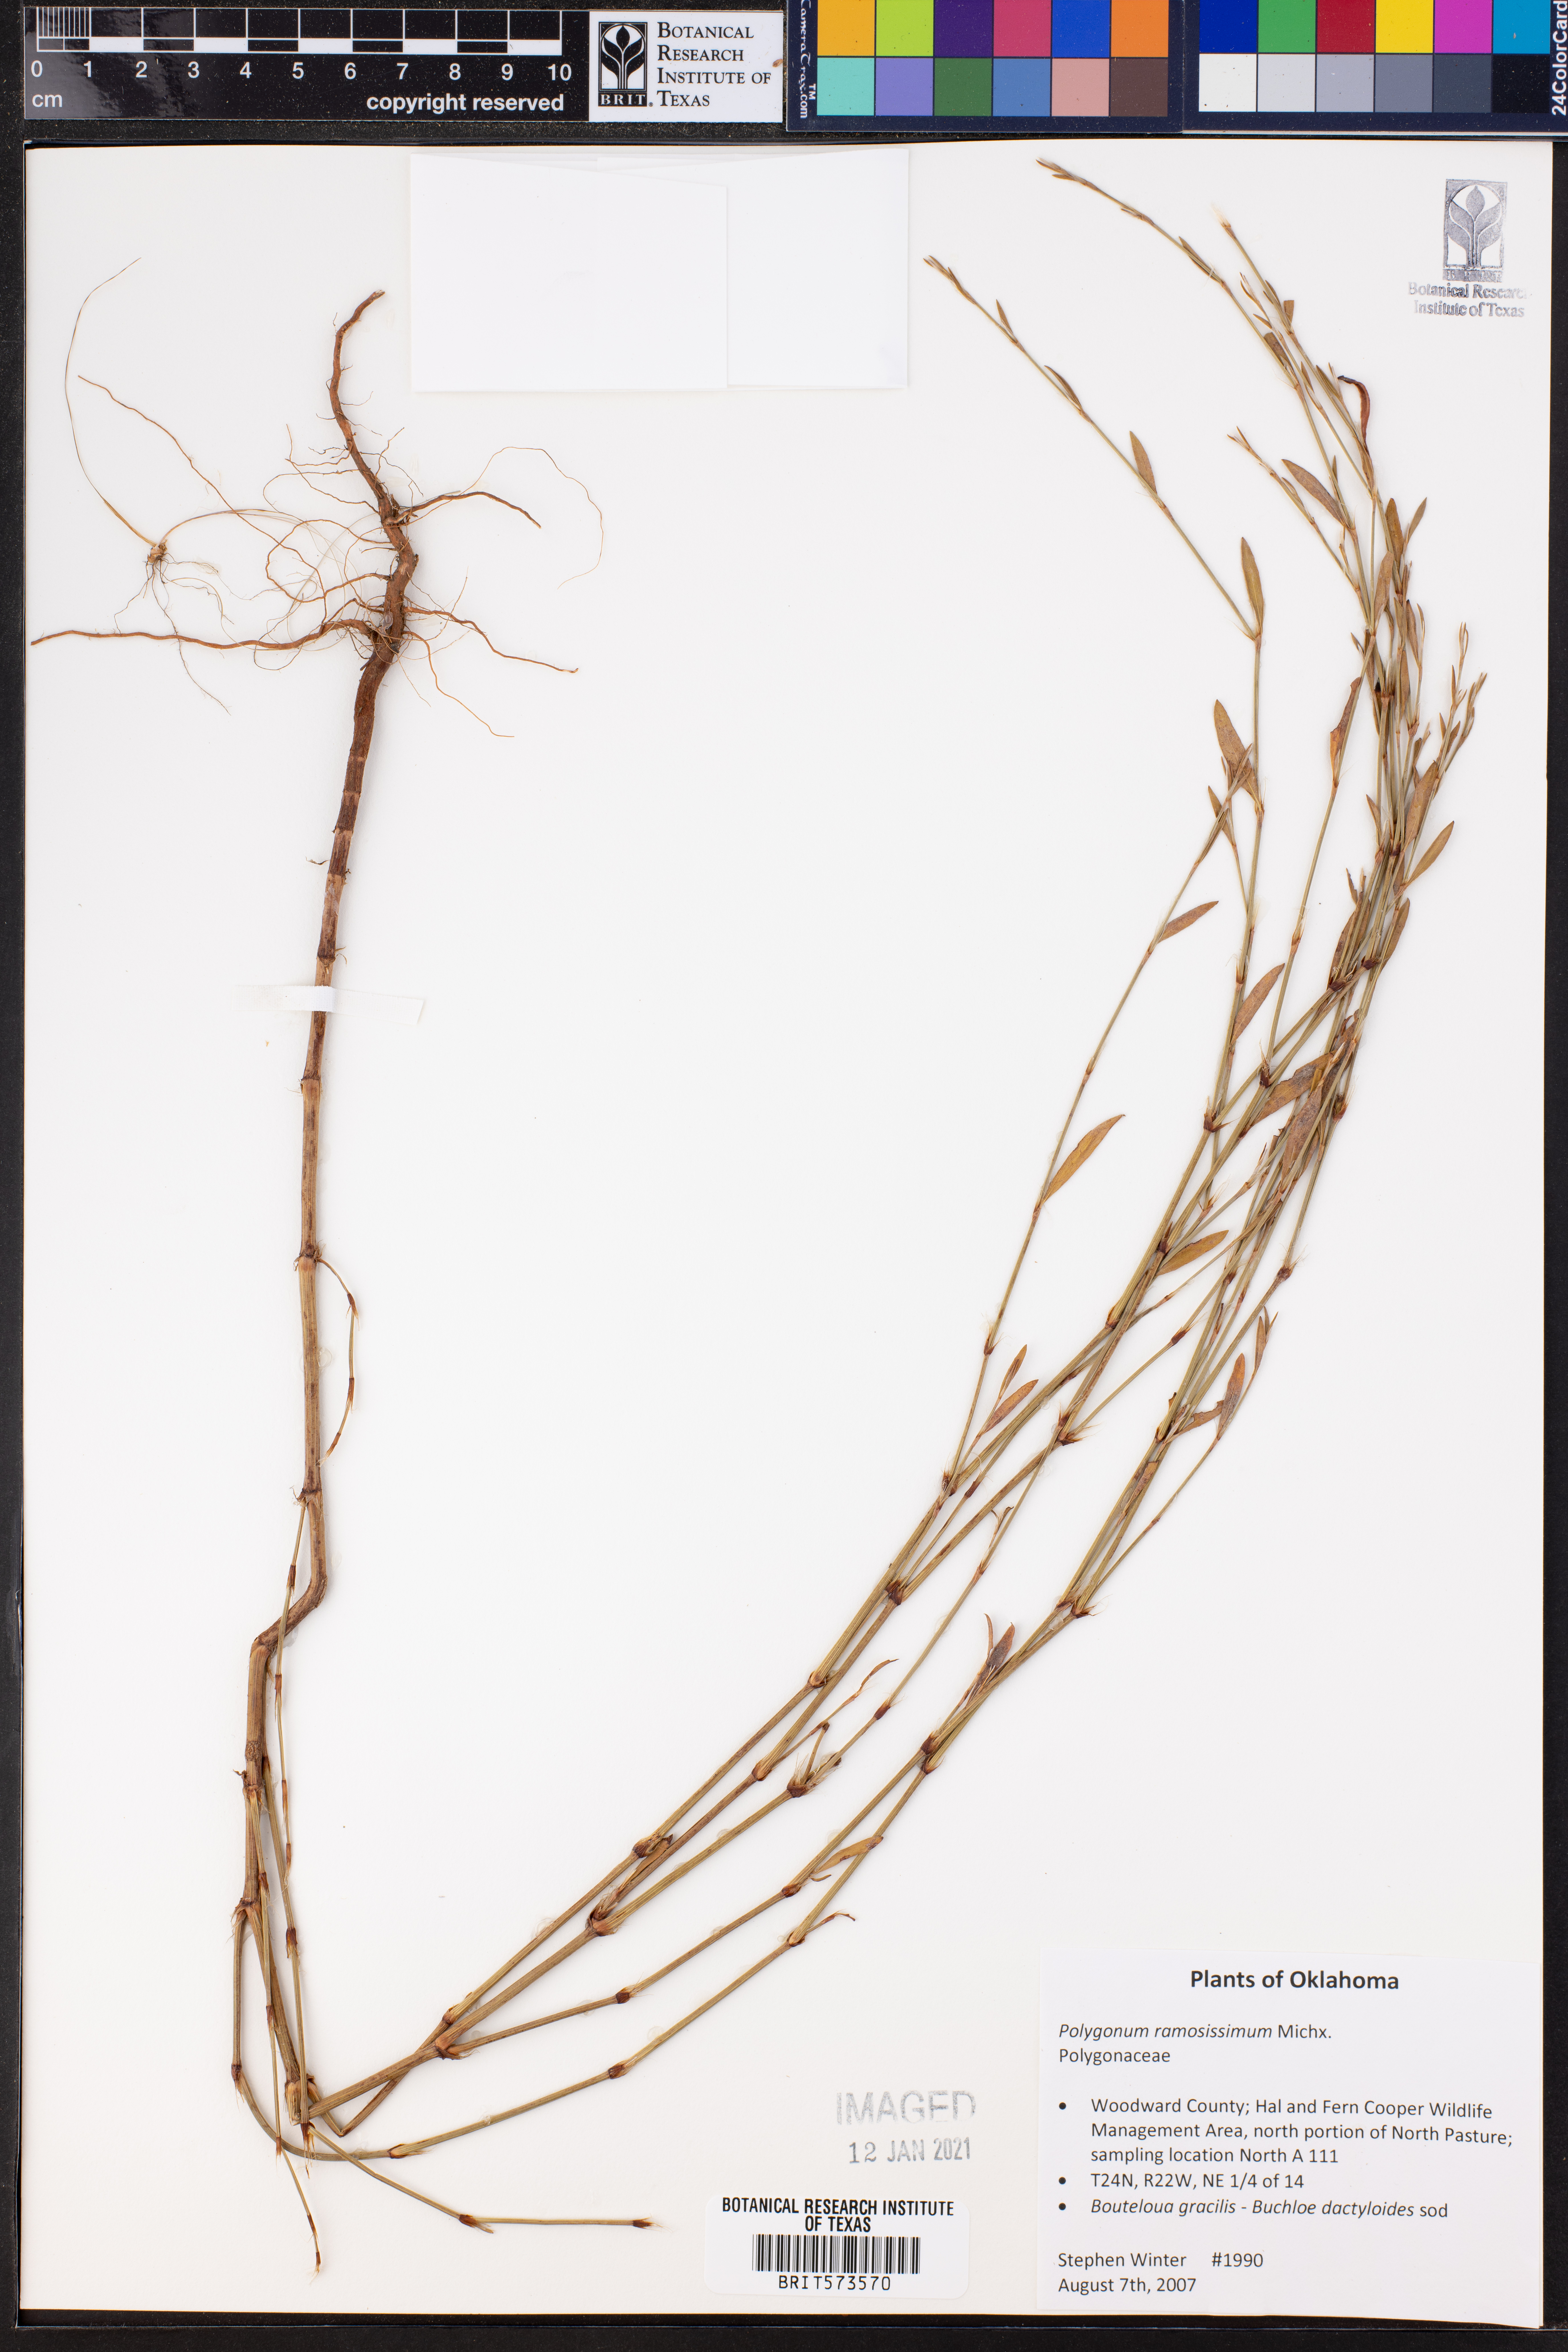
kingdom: Plantae
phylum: Tracheophyta
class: Magnoliopsida
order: Caryophyllales
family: Polygonaceae
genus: Polygonum
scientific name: Polygonum ramosissimum
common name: Bushy knotweed
